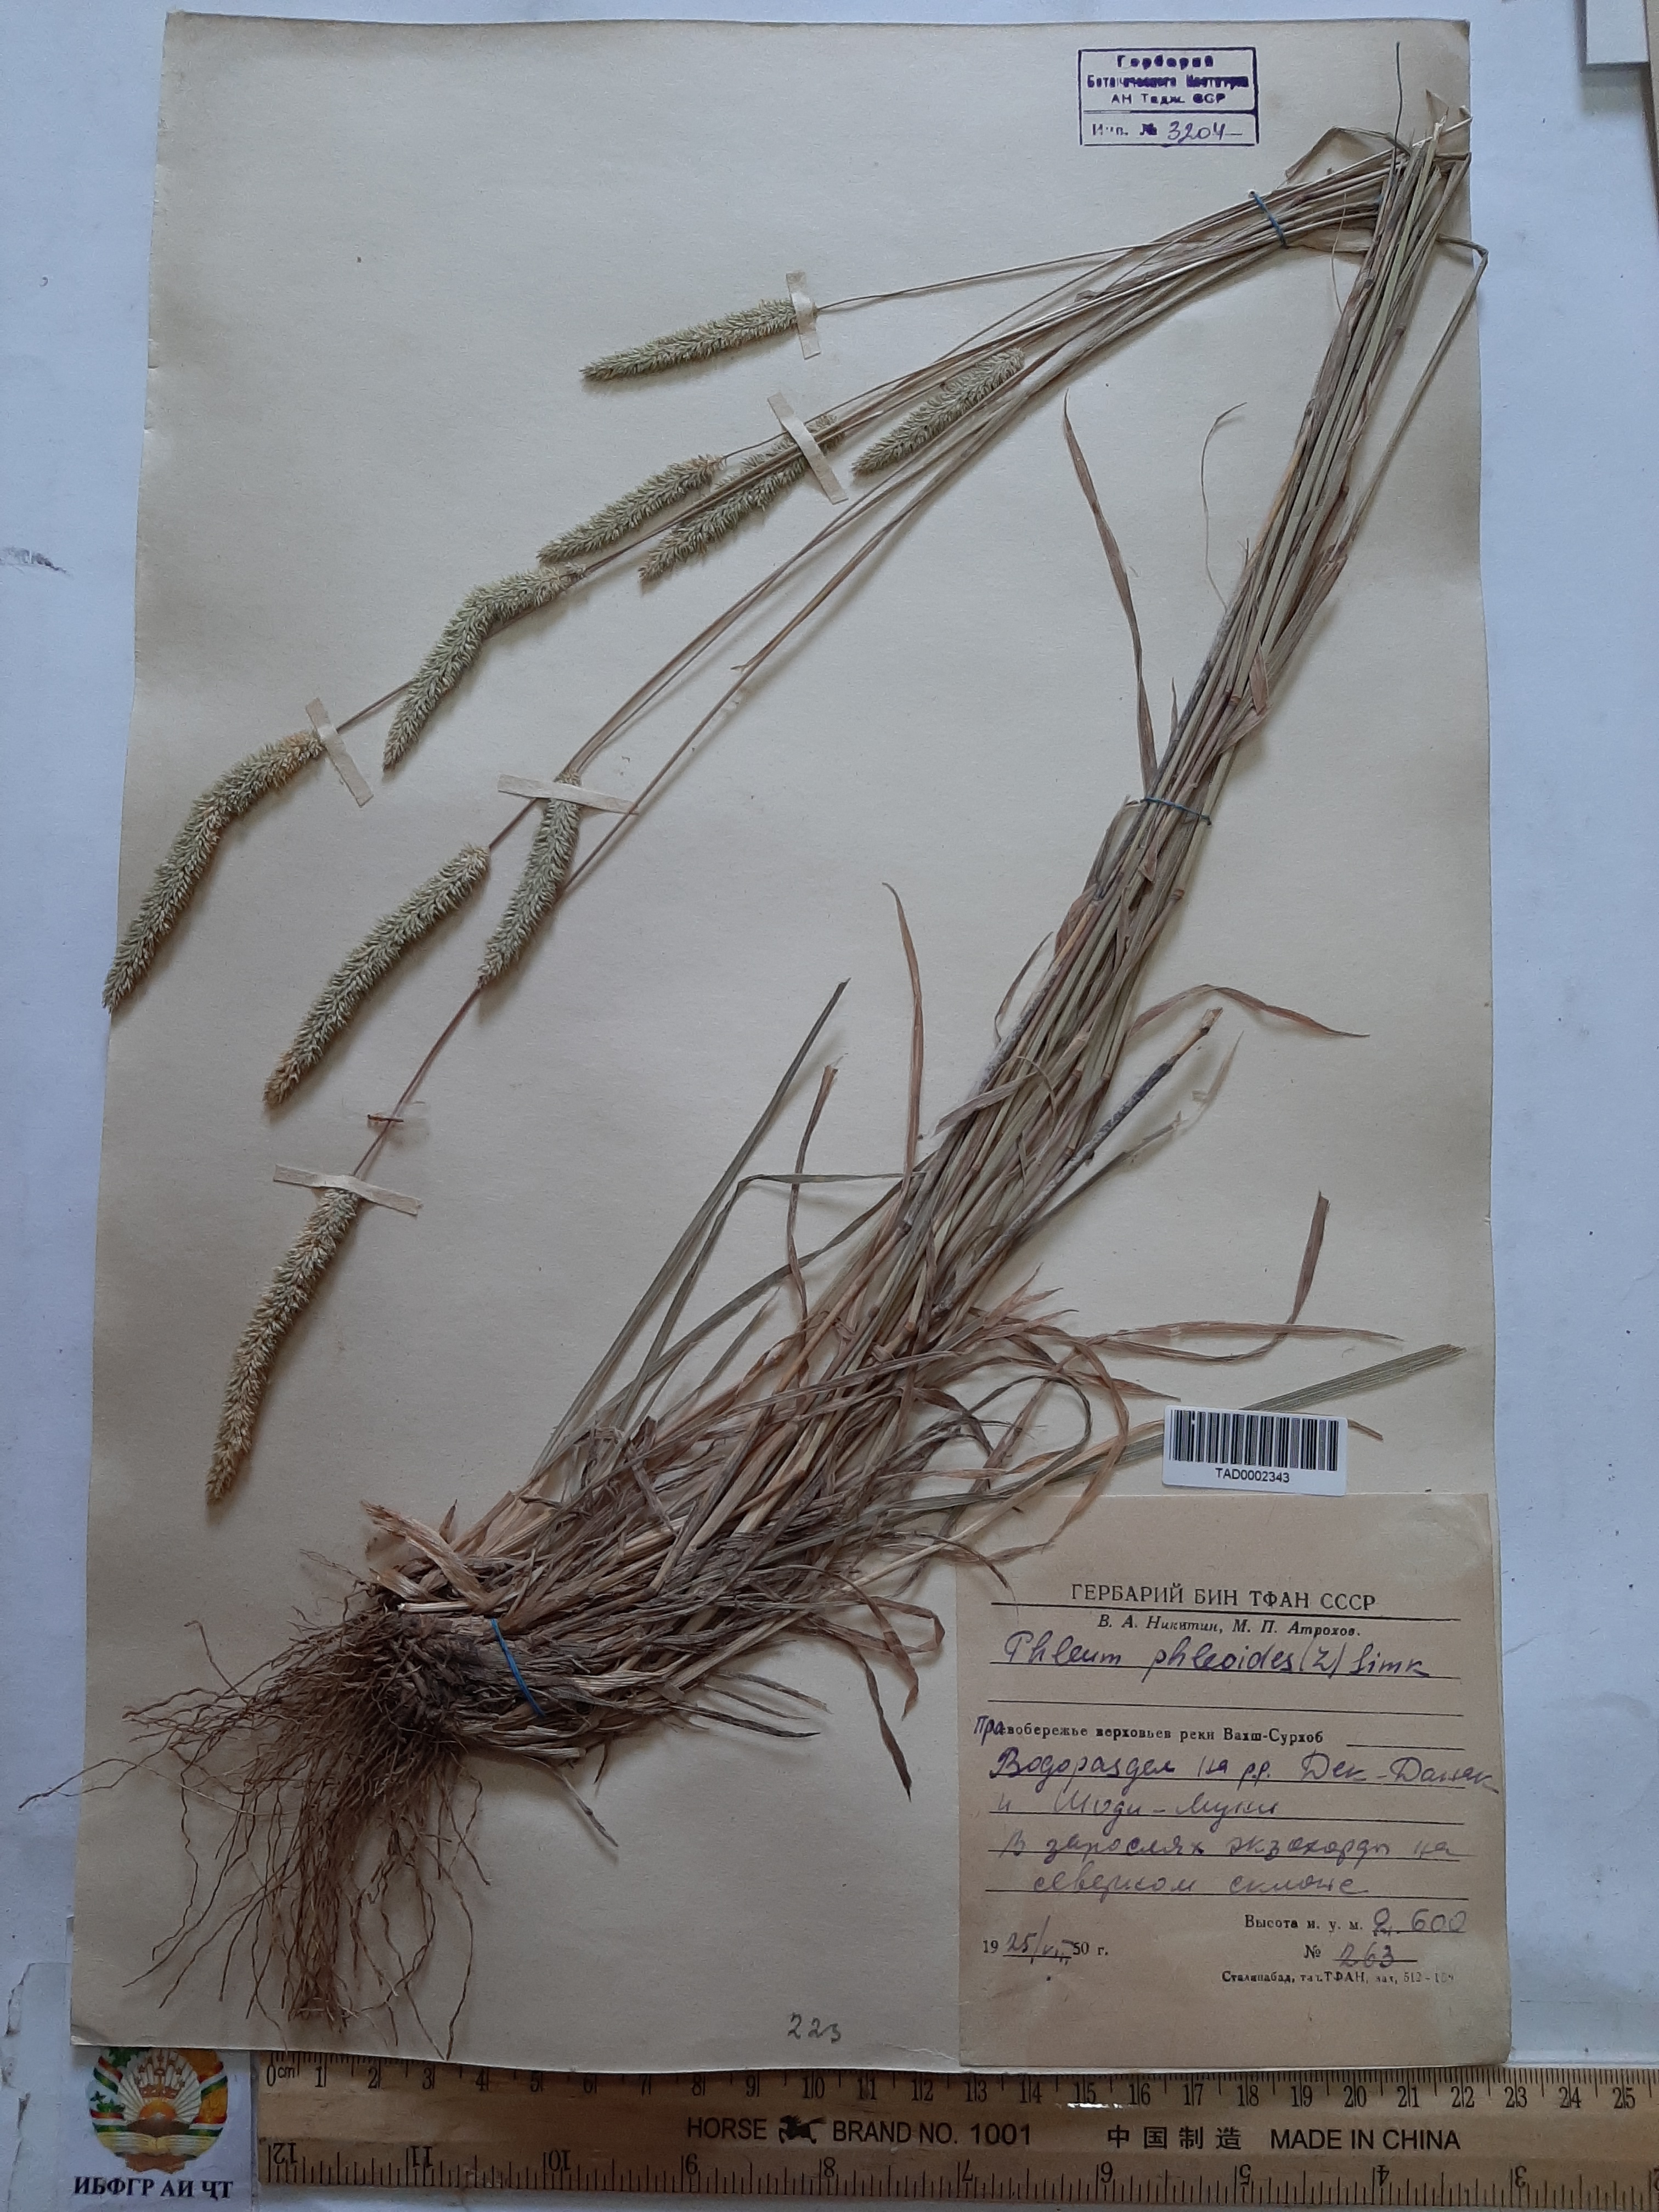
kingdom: Plantae
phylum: Tracheophyta
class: Liliopsida
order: Poales
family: Poaceae
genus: Phleum
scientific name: Phleum phleoides
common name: Purple-stem cat's-tail
